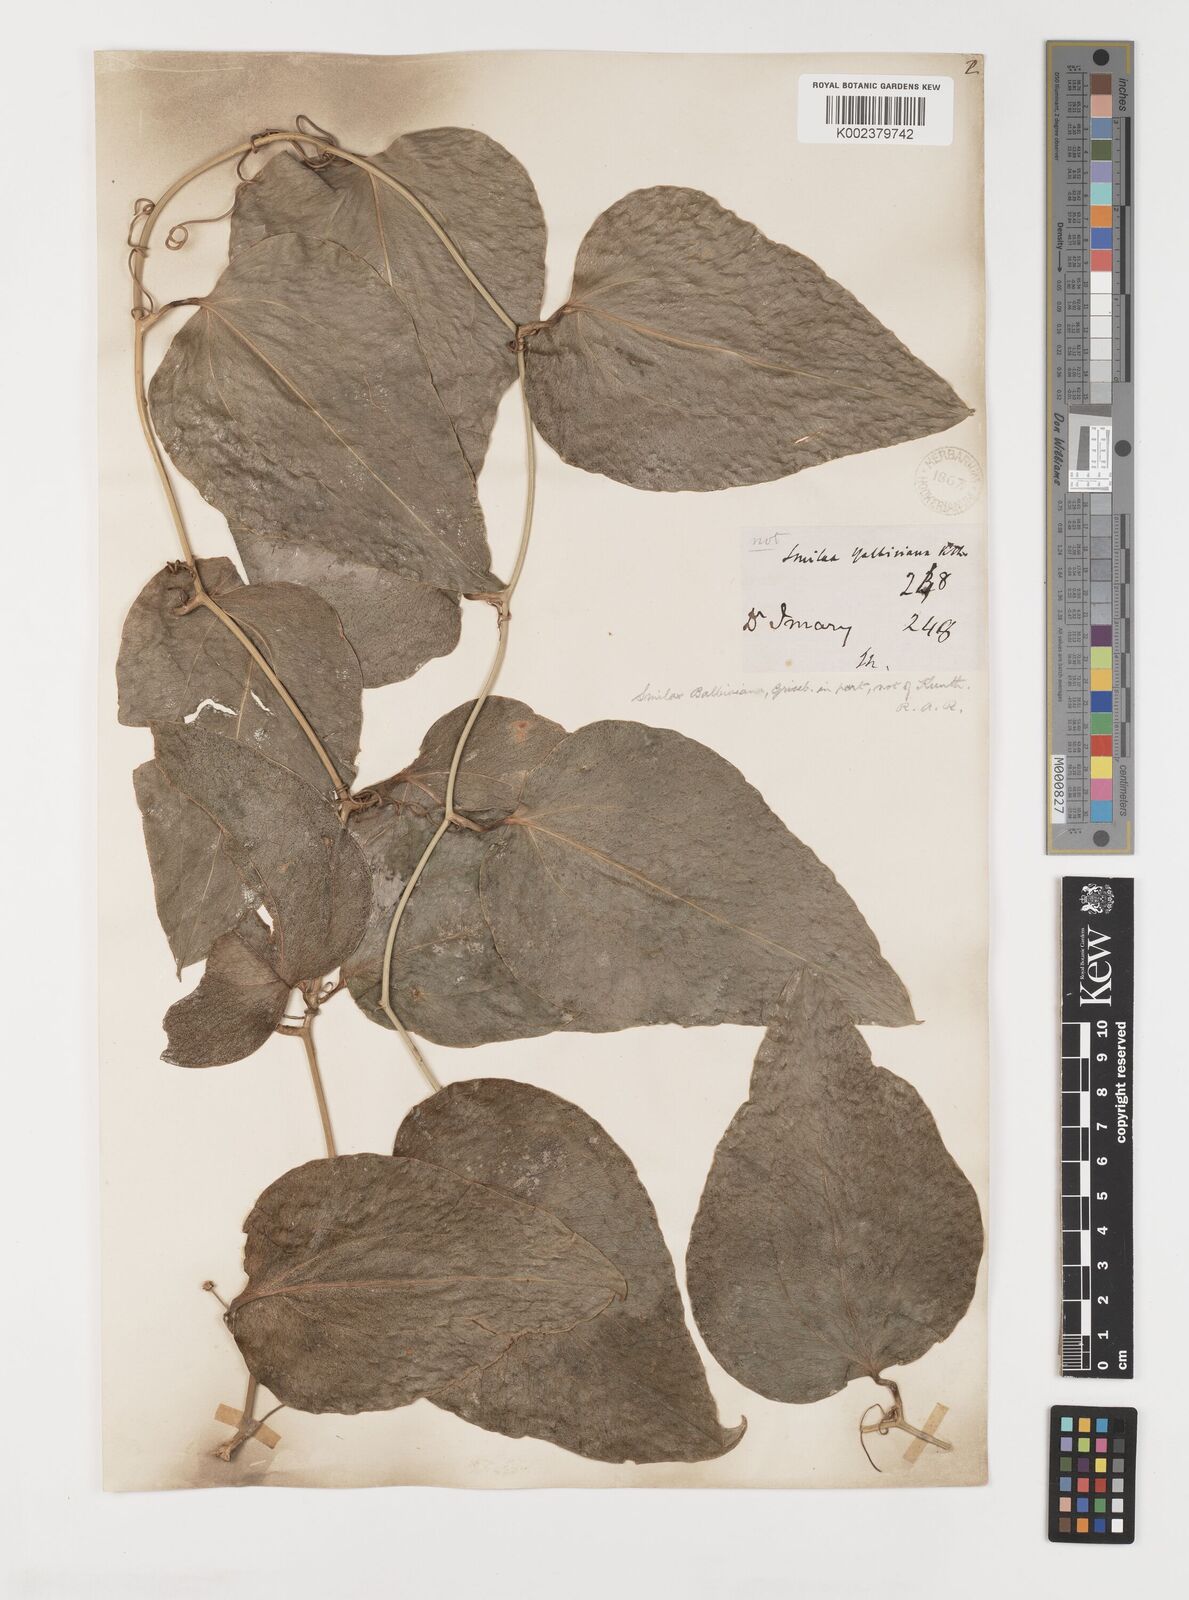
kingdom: Plantae
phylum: Tracheophyta
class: Liliopsida
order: Liliales
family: Smilacaceae
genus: Smilax
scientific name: Smilax guianensis
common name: Basket hoop
